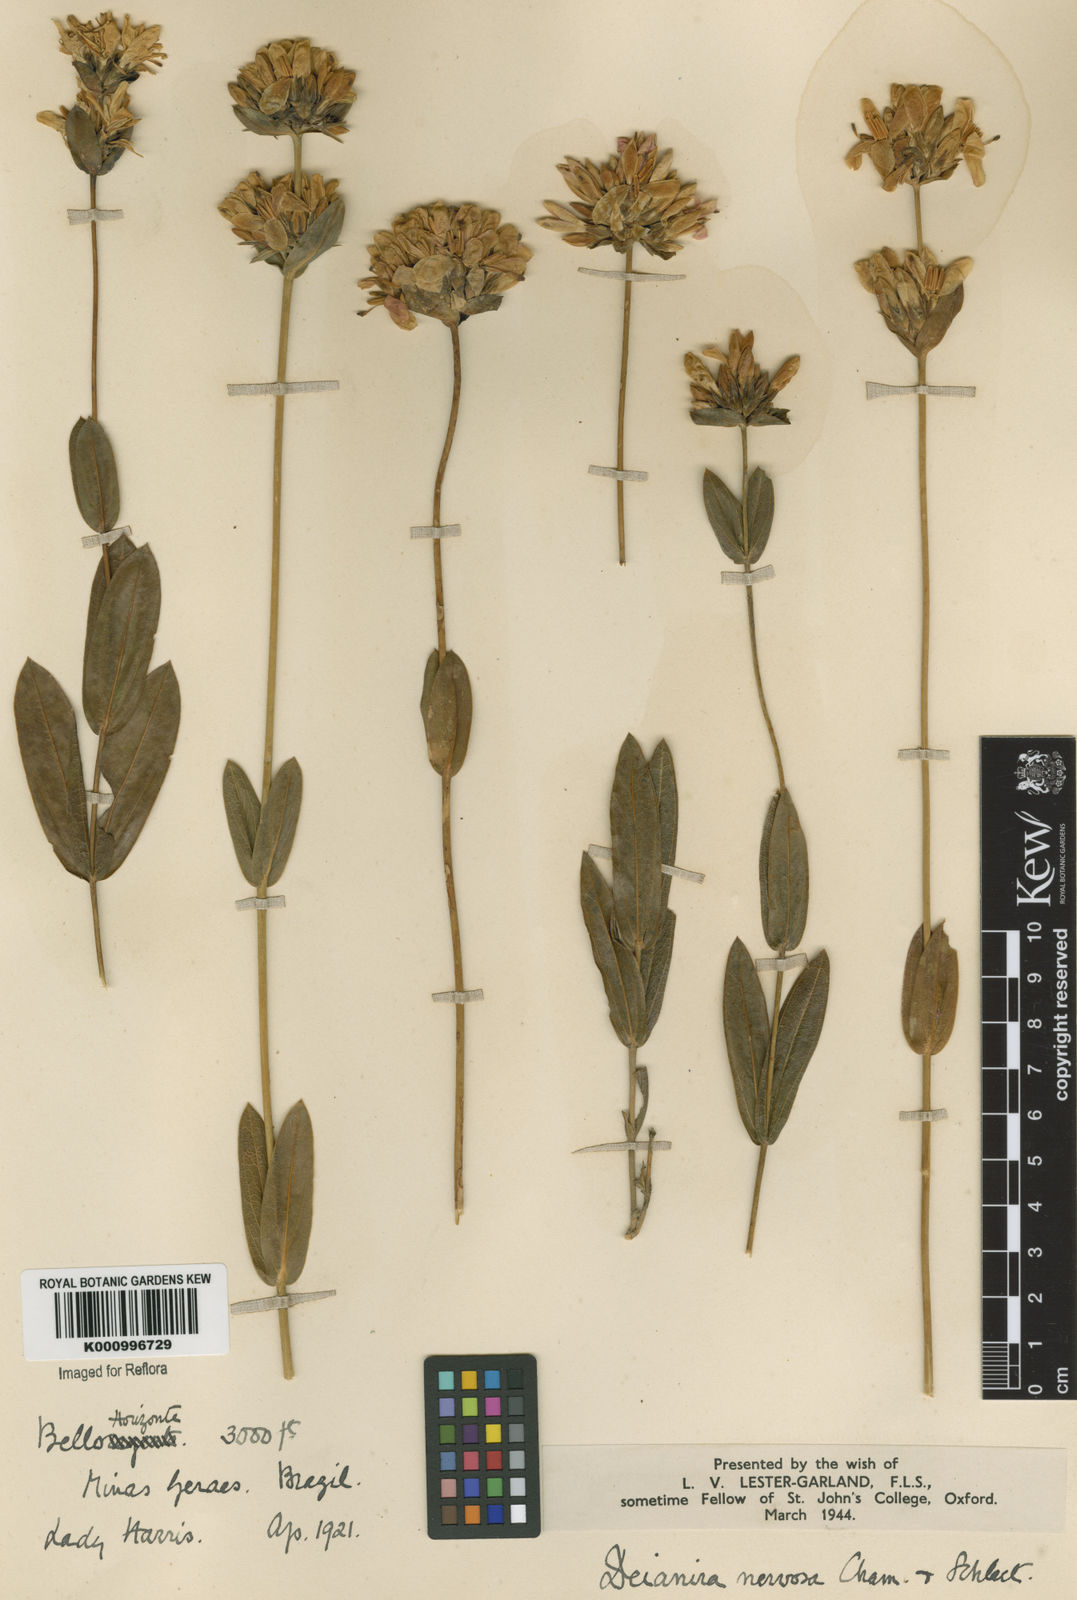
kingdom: Plantae
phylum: Tracheophyta
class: Magnoliopsida
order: Gentianales
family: Gentianaceae
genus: Deianira
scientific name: Deianira nervosa
